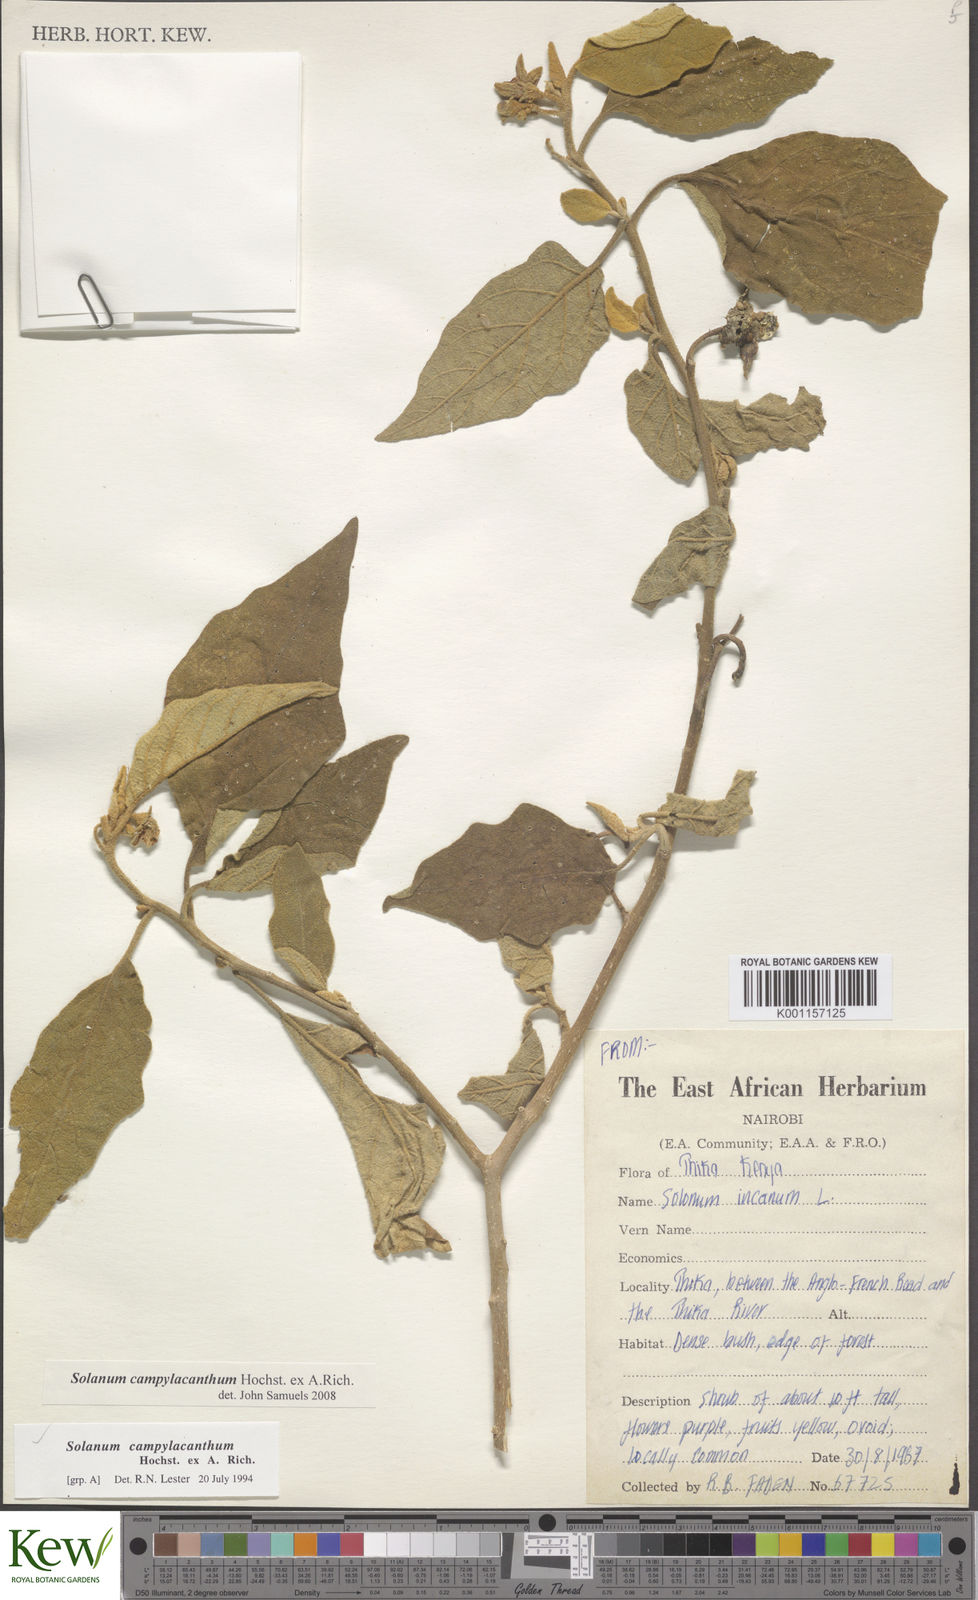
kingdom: Plantae
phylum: Tracheophyta
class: Magnoliopsida
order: Solanales
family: Solanaceae
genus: Solanum
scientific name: Solanum campylacanthum
